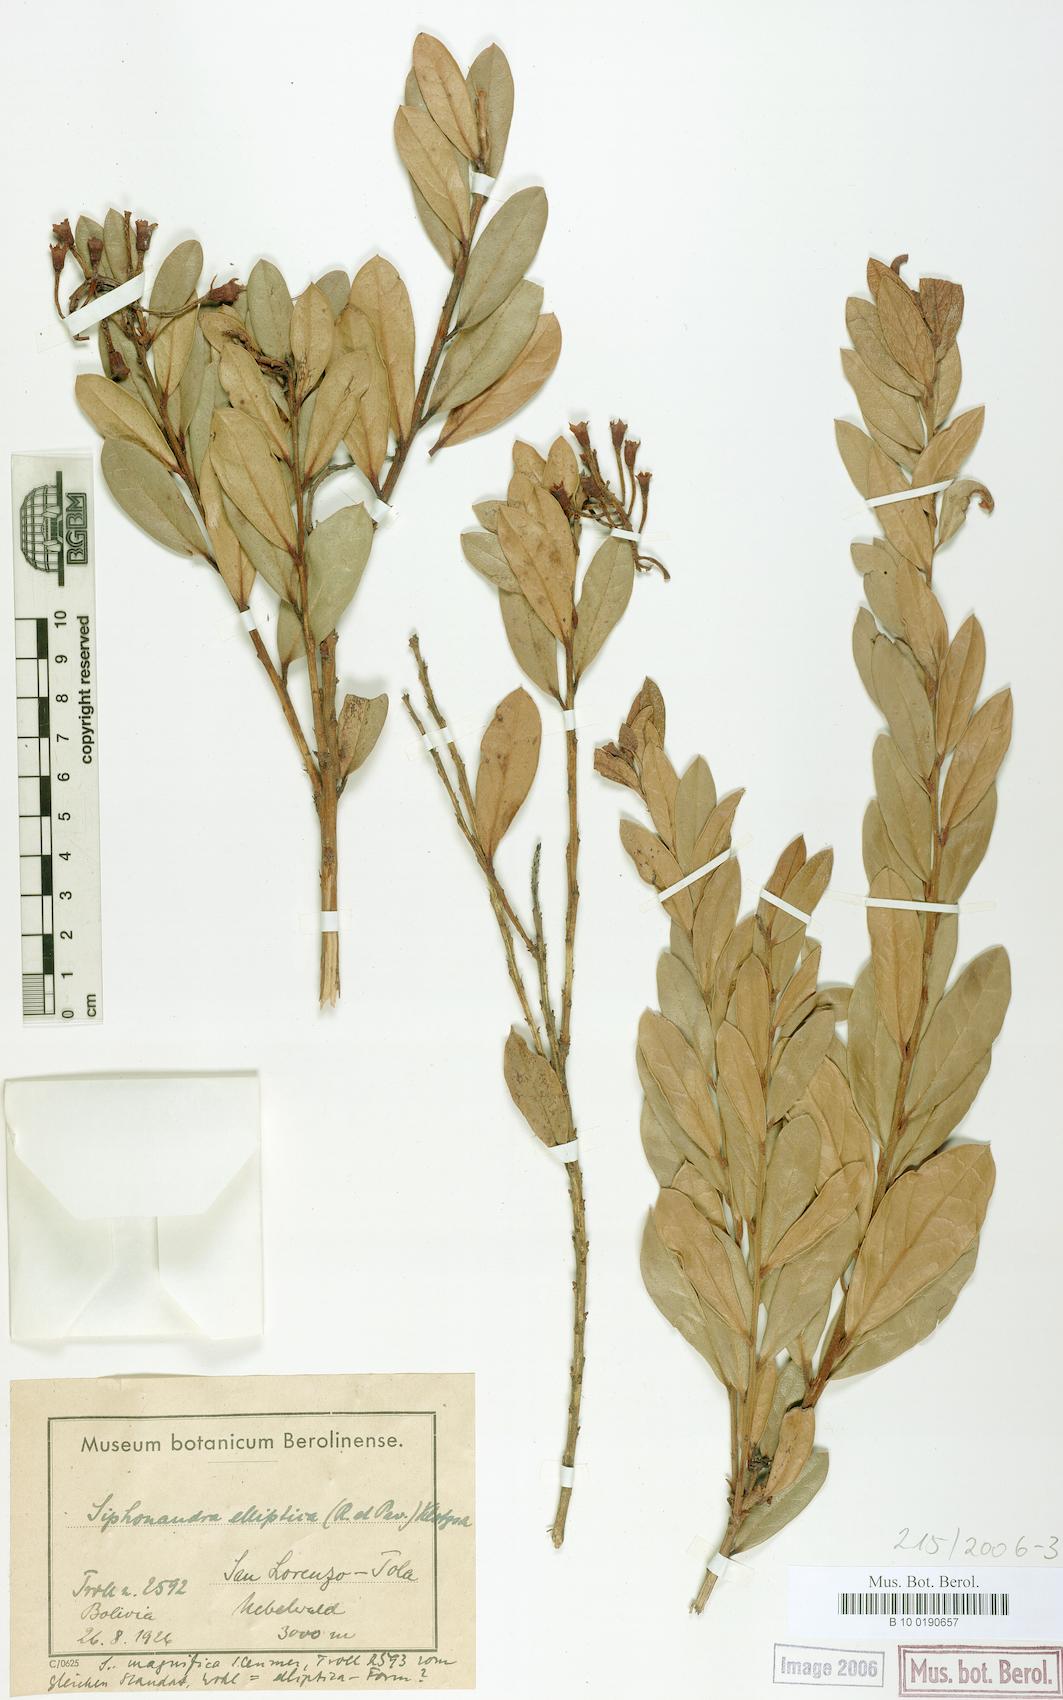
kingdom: Plantae
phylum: Tracheophyta
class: Magnoliopsida
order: Ericales
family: Ericaceae
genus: Siphonandra
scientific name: Siphonandra elliptica
